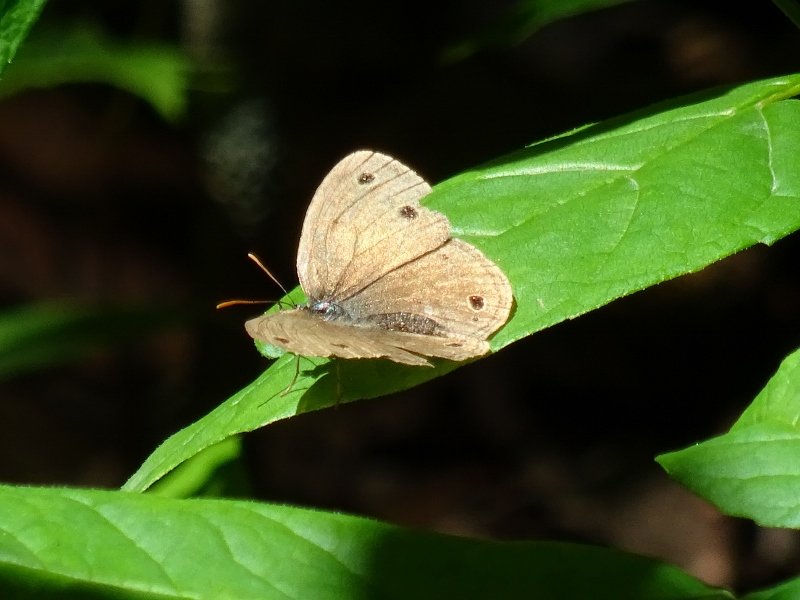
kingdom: Animalia
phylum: Arthropoda
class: Insecta
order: Lepidoptera
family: Nymphalidae
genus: Euptychia
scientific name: Euptychia cymela
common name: Little Wood Satyr
